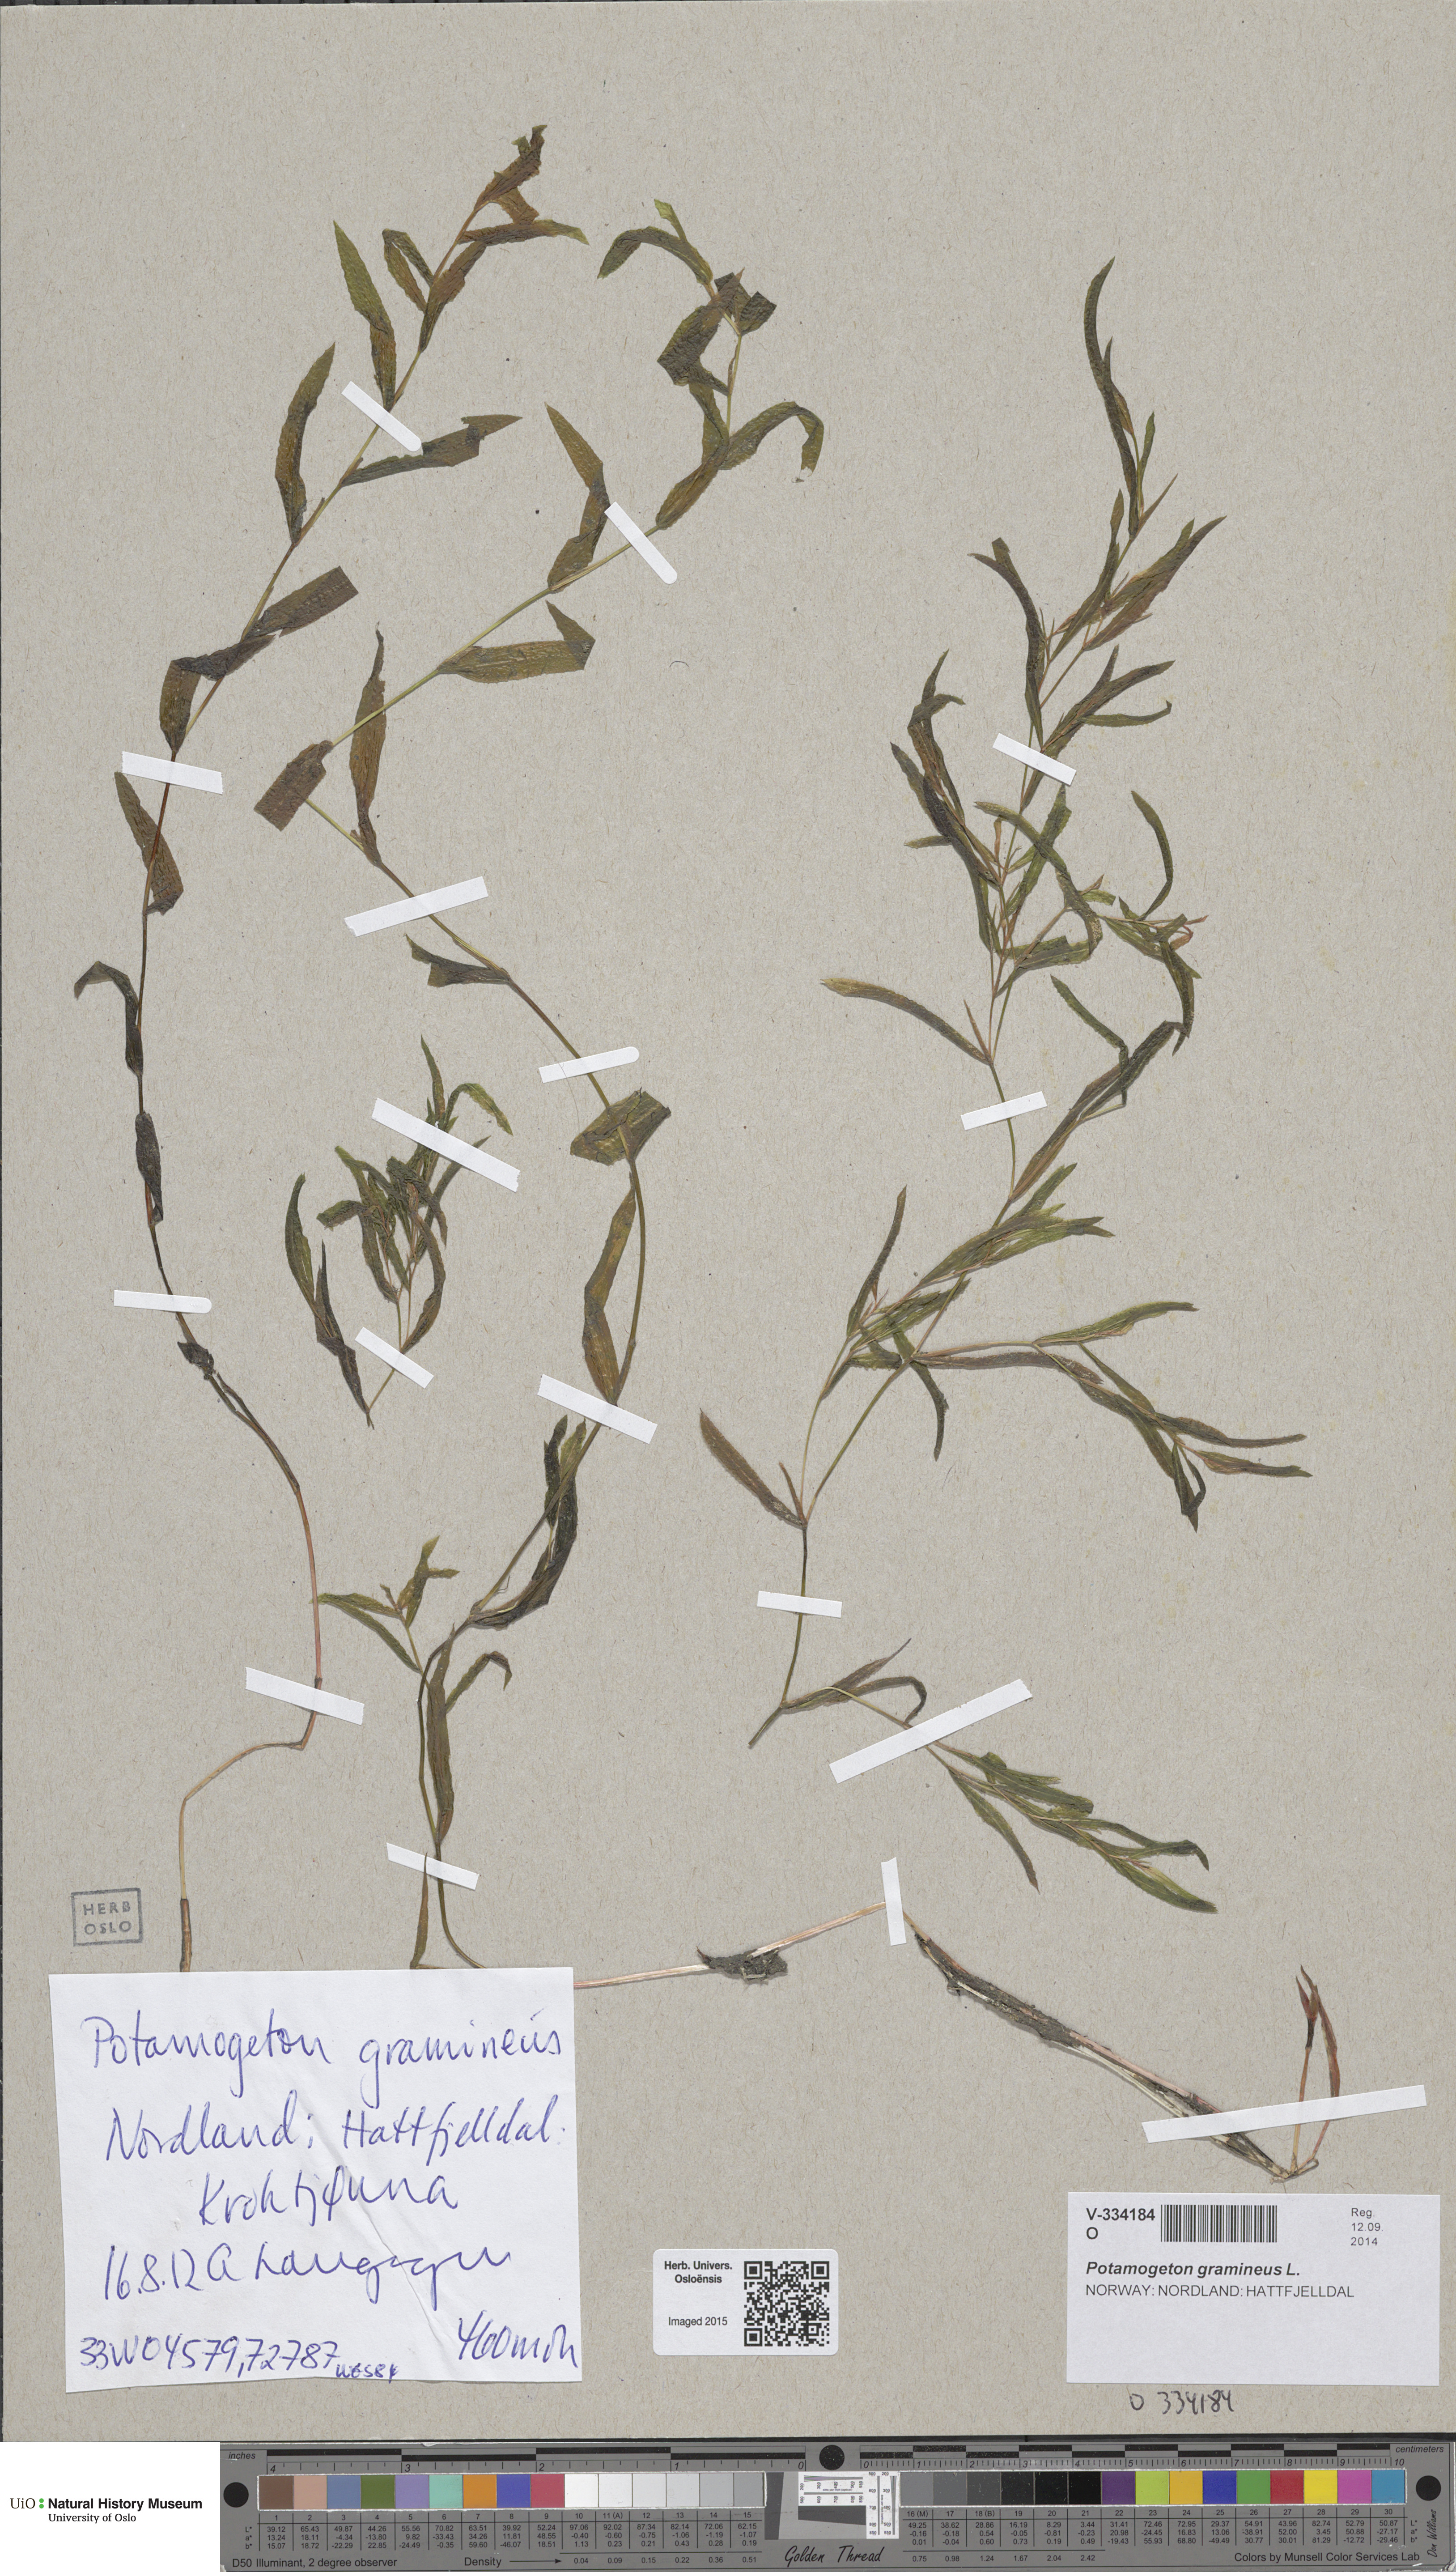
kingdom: Plantae
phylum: Tracheophyta
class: Liliopsida
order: Alismatales
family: Potamogetonaceae
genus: Potamogeton
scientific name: Potamogeton gramineus
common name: Various-leaved pondweed
